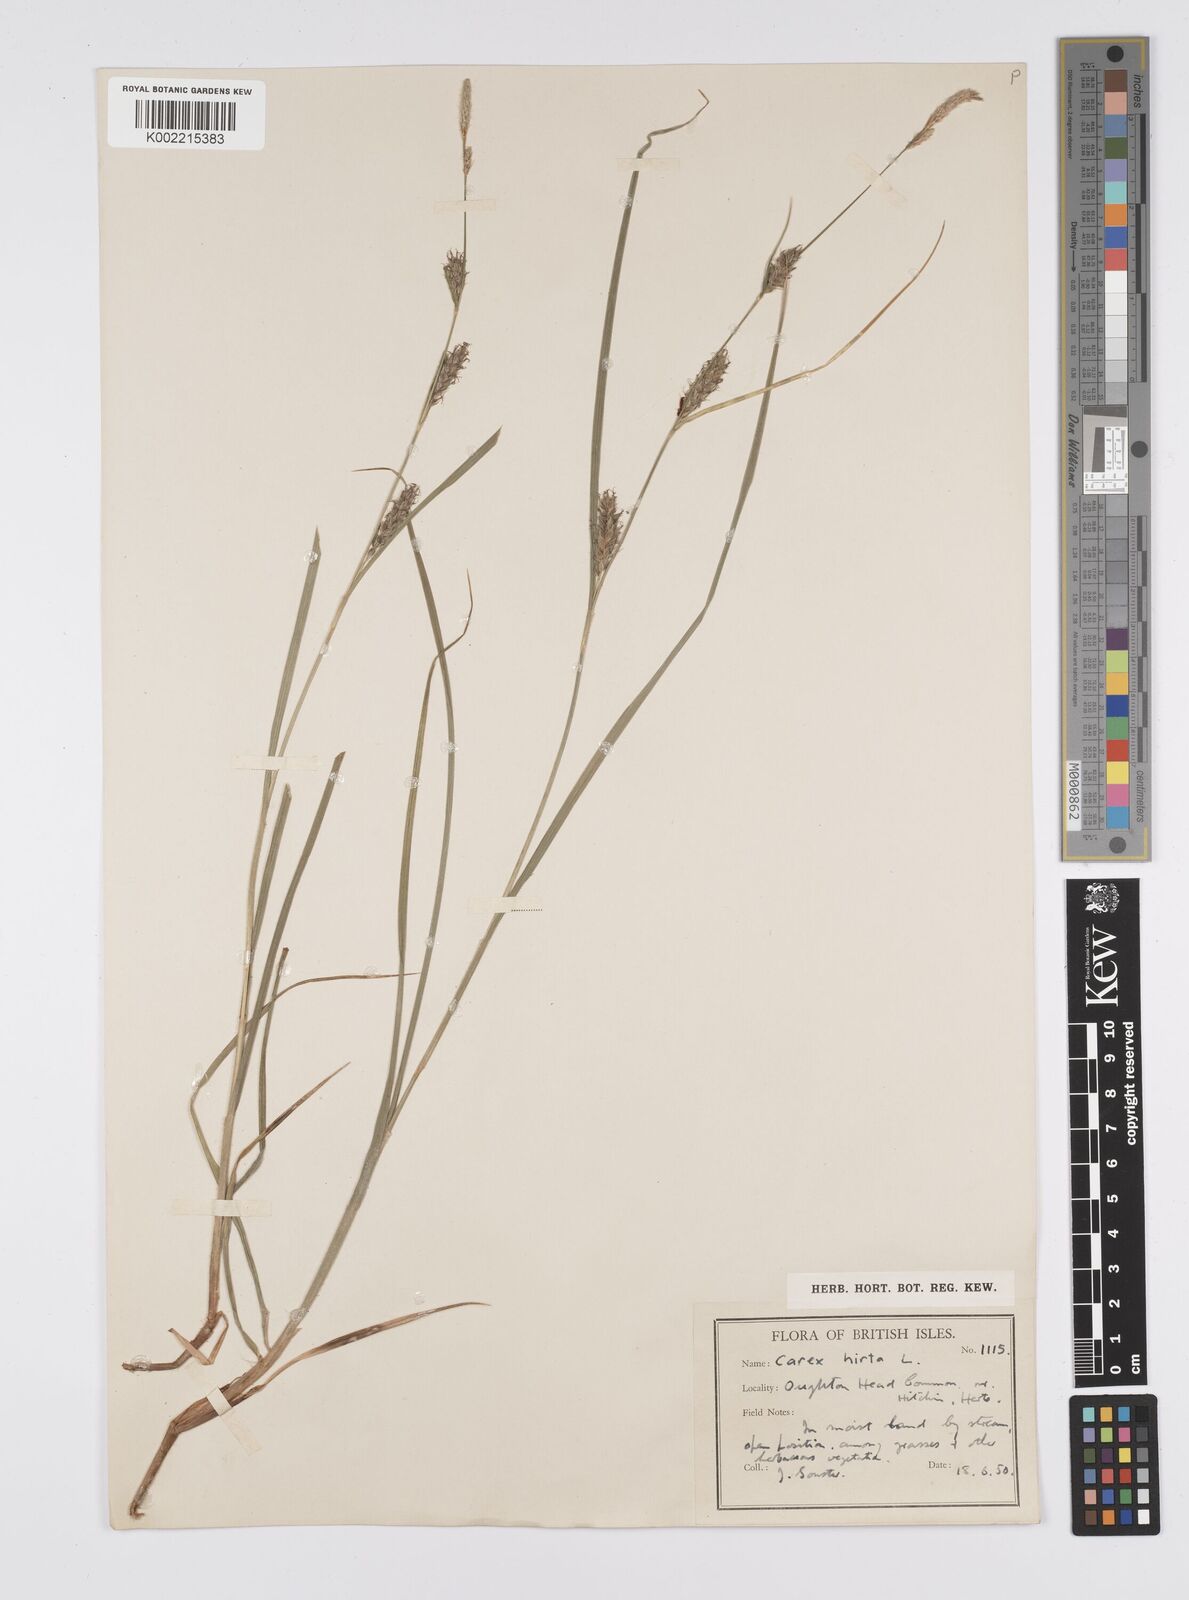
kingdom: Plantae
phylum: Tracheophyta
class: Liliopsida
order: Poales
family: Cyperaceae
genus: Carex
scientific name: Carex hirta
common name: Hairy sedge
